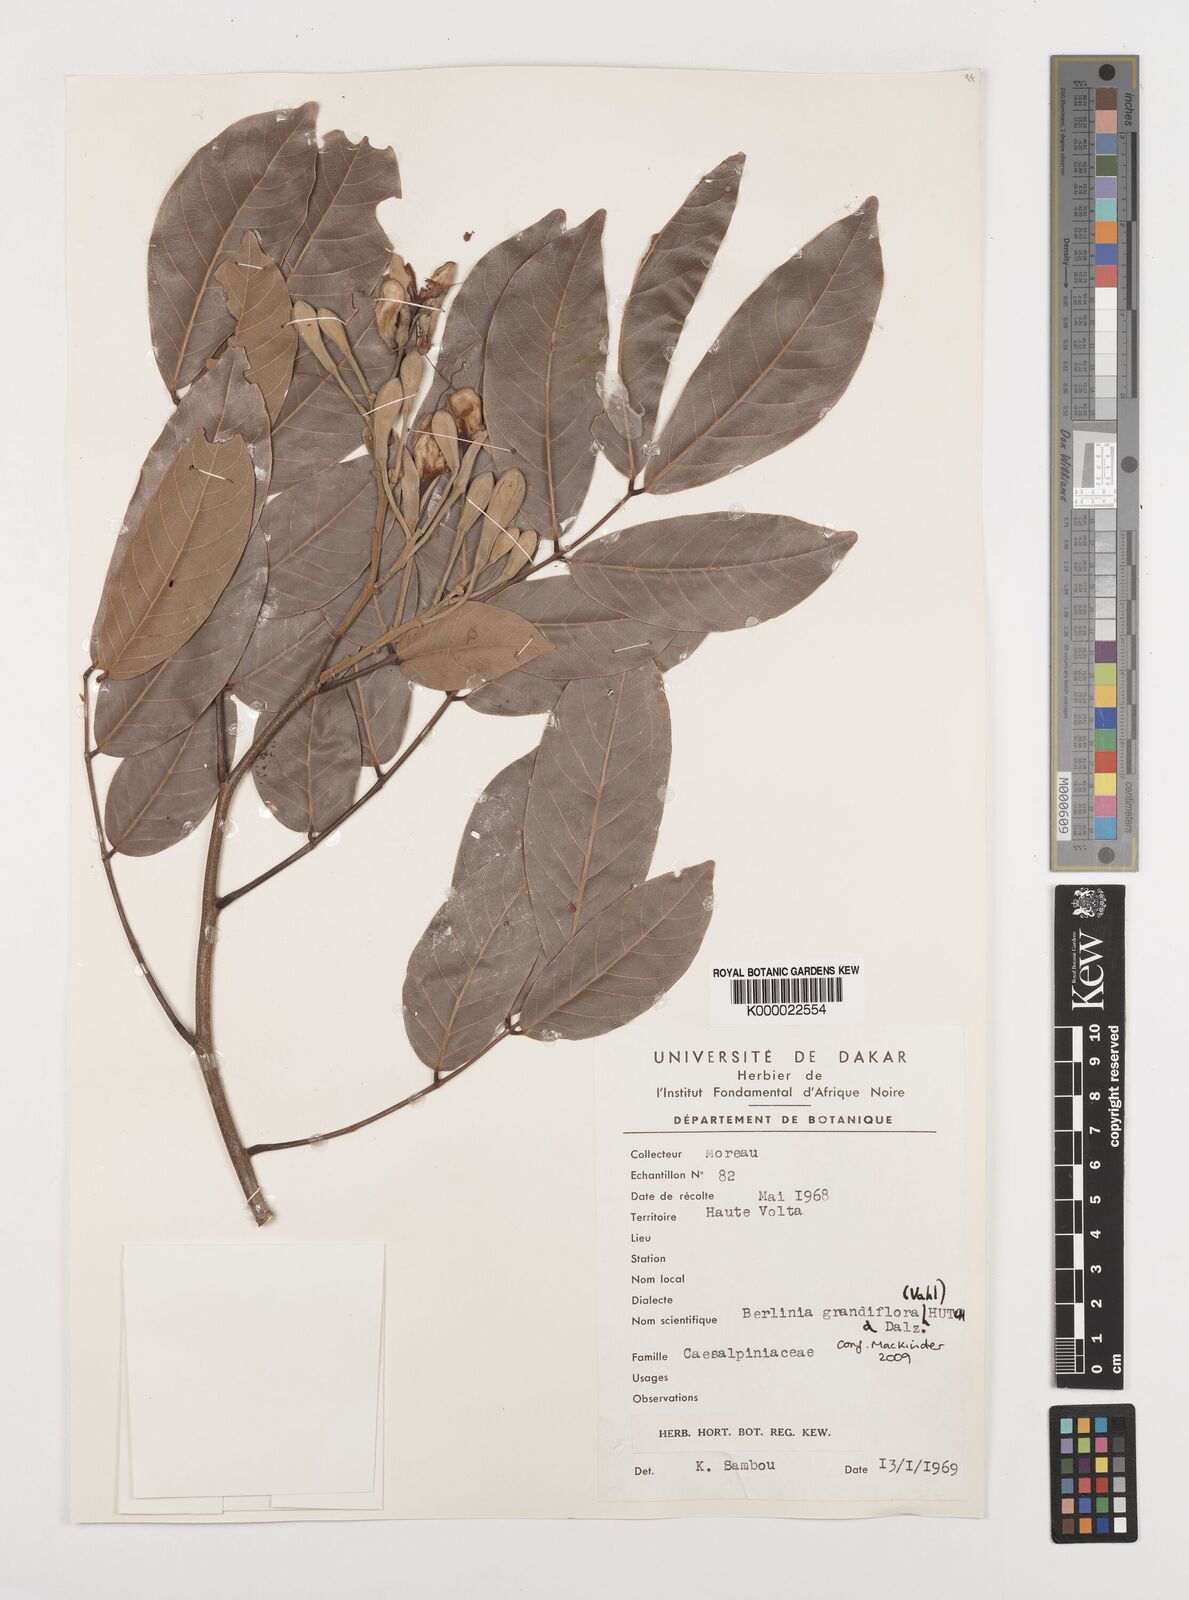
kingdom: Plantae
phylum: Tracheophyta
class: Magnoliopsida
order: Fabales
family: Fabaceae
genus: Berlinia
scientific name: Berlinia grandiflora
